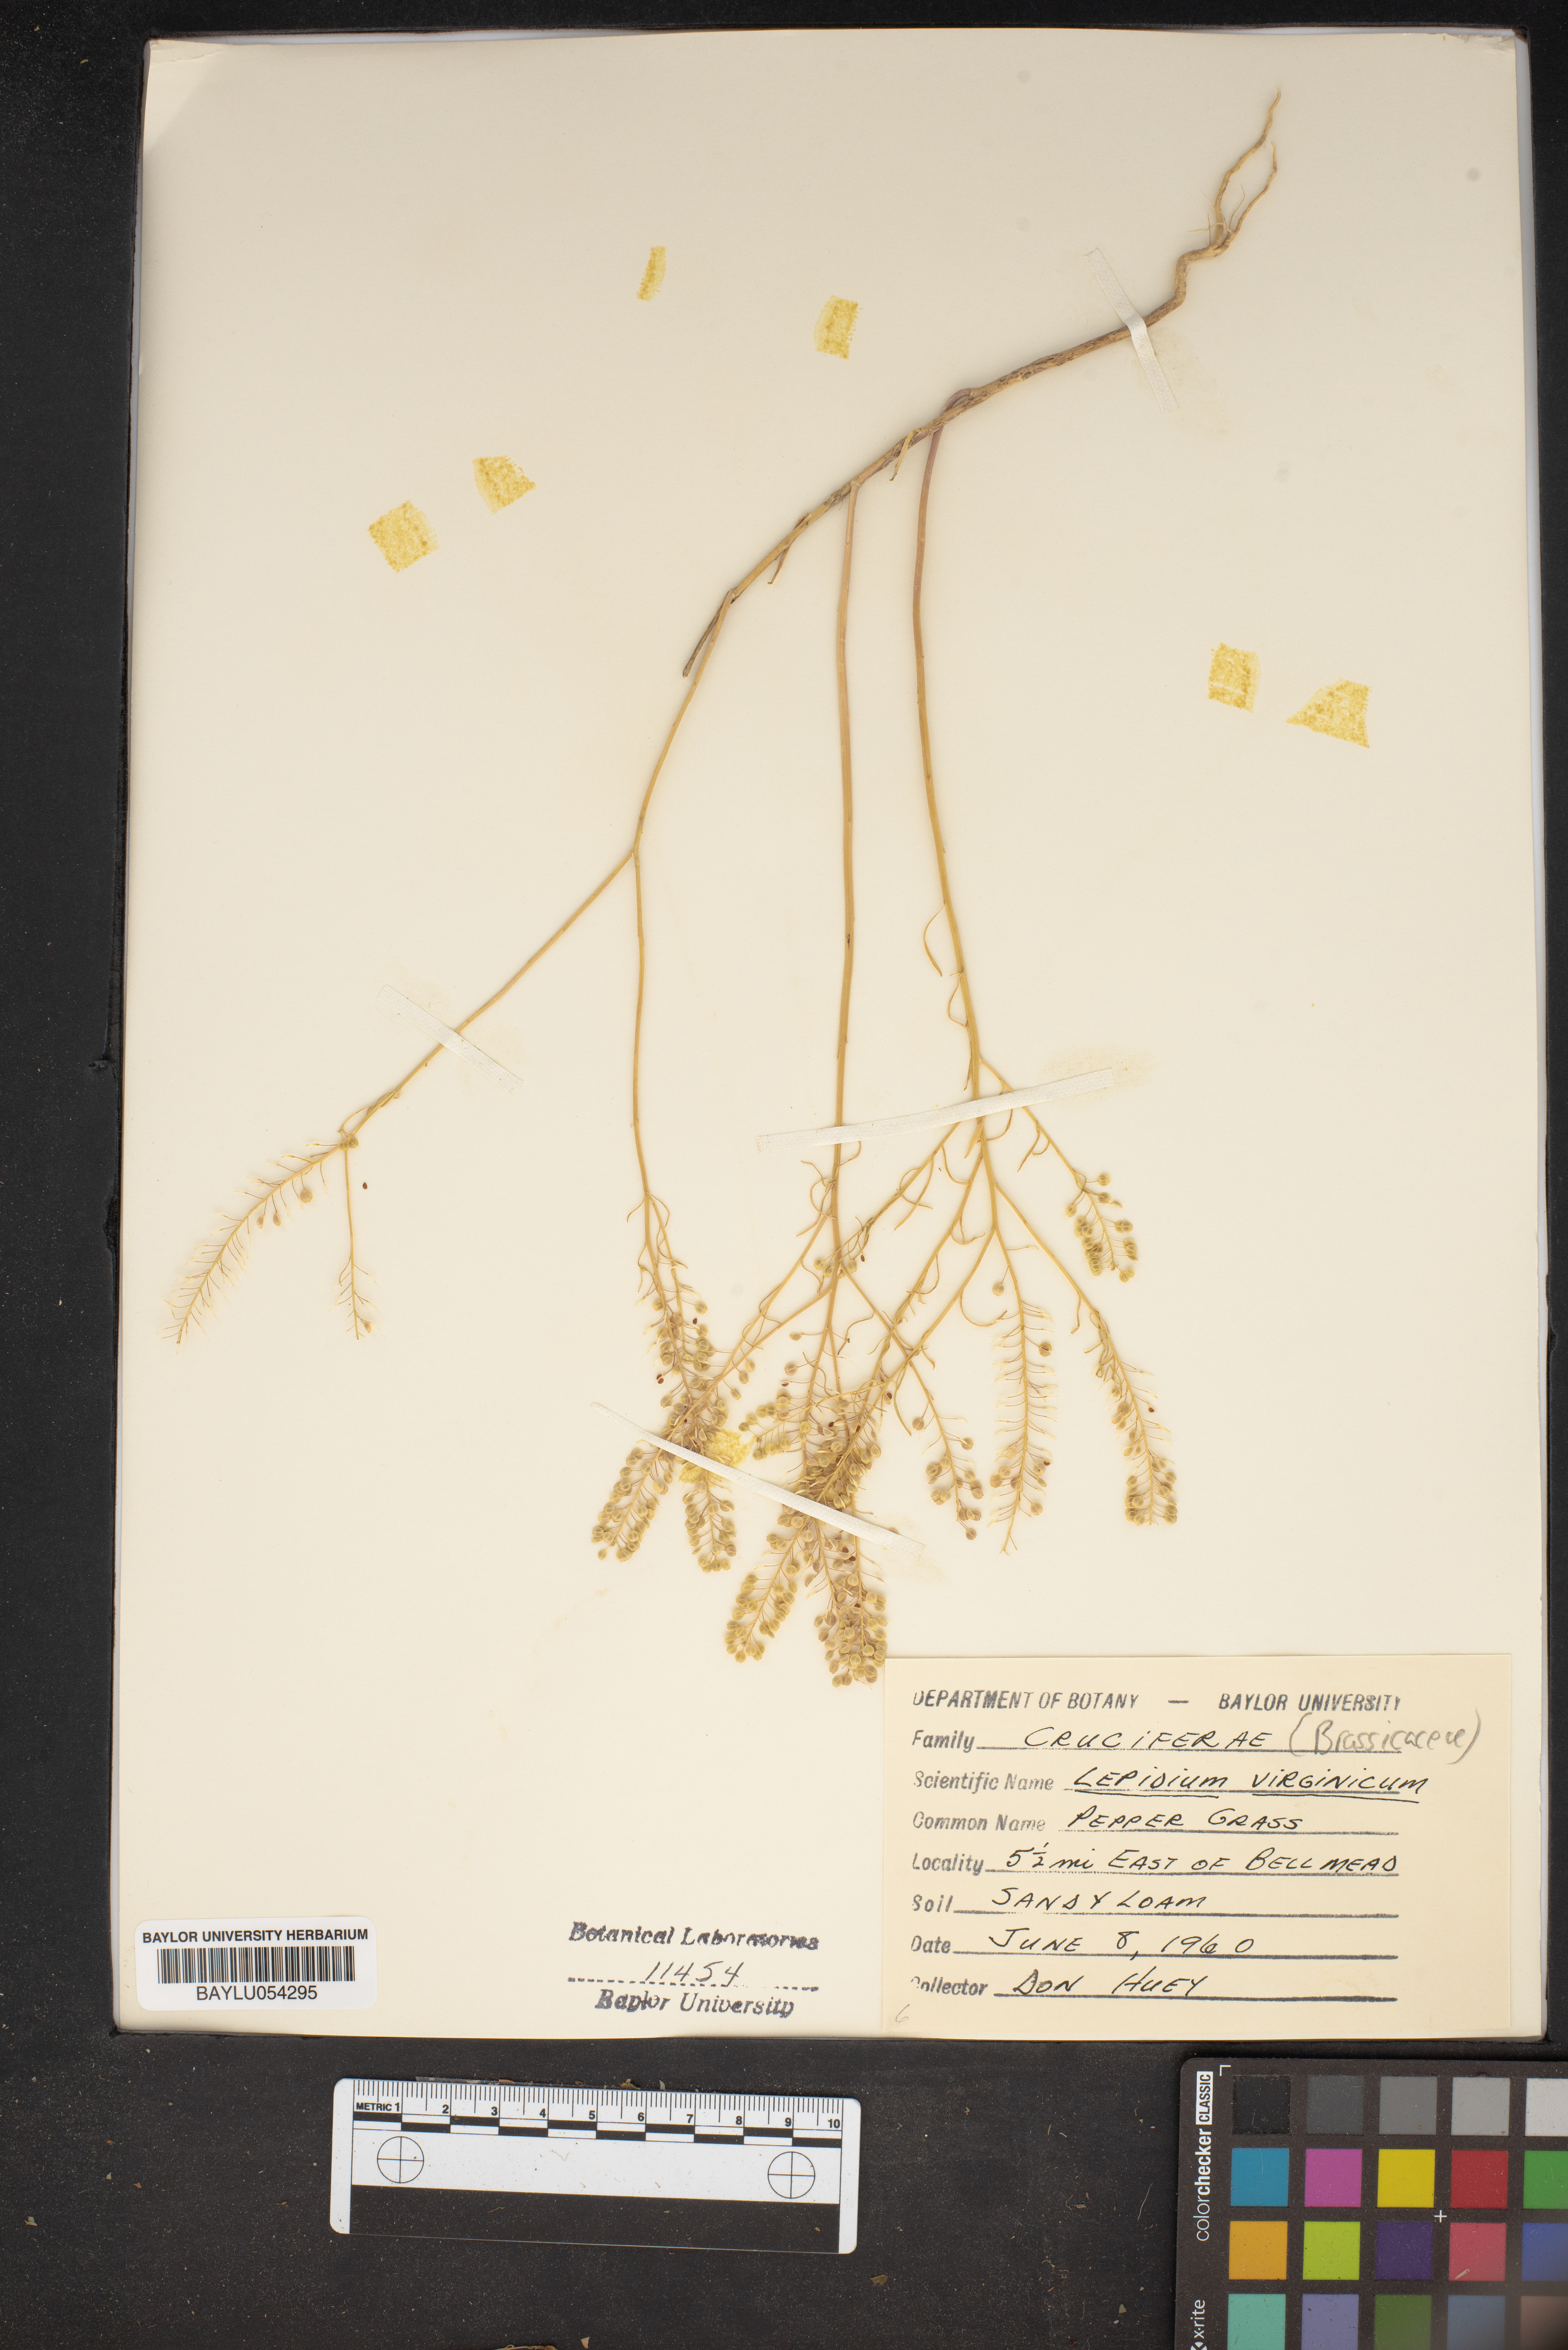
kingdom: Plantae
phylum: Tracheophyta
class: Magnoliopsida
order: Brassicales
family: Brassicaceae
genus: Lepidium
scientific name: Lepidium virginicum
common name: Least pepperwort
